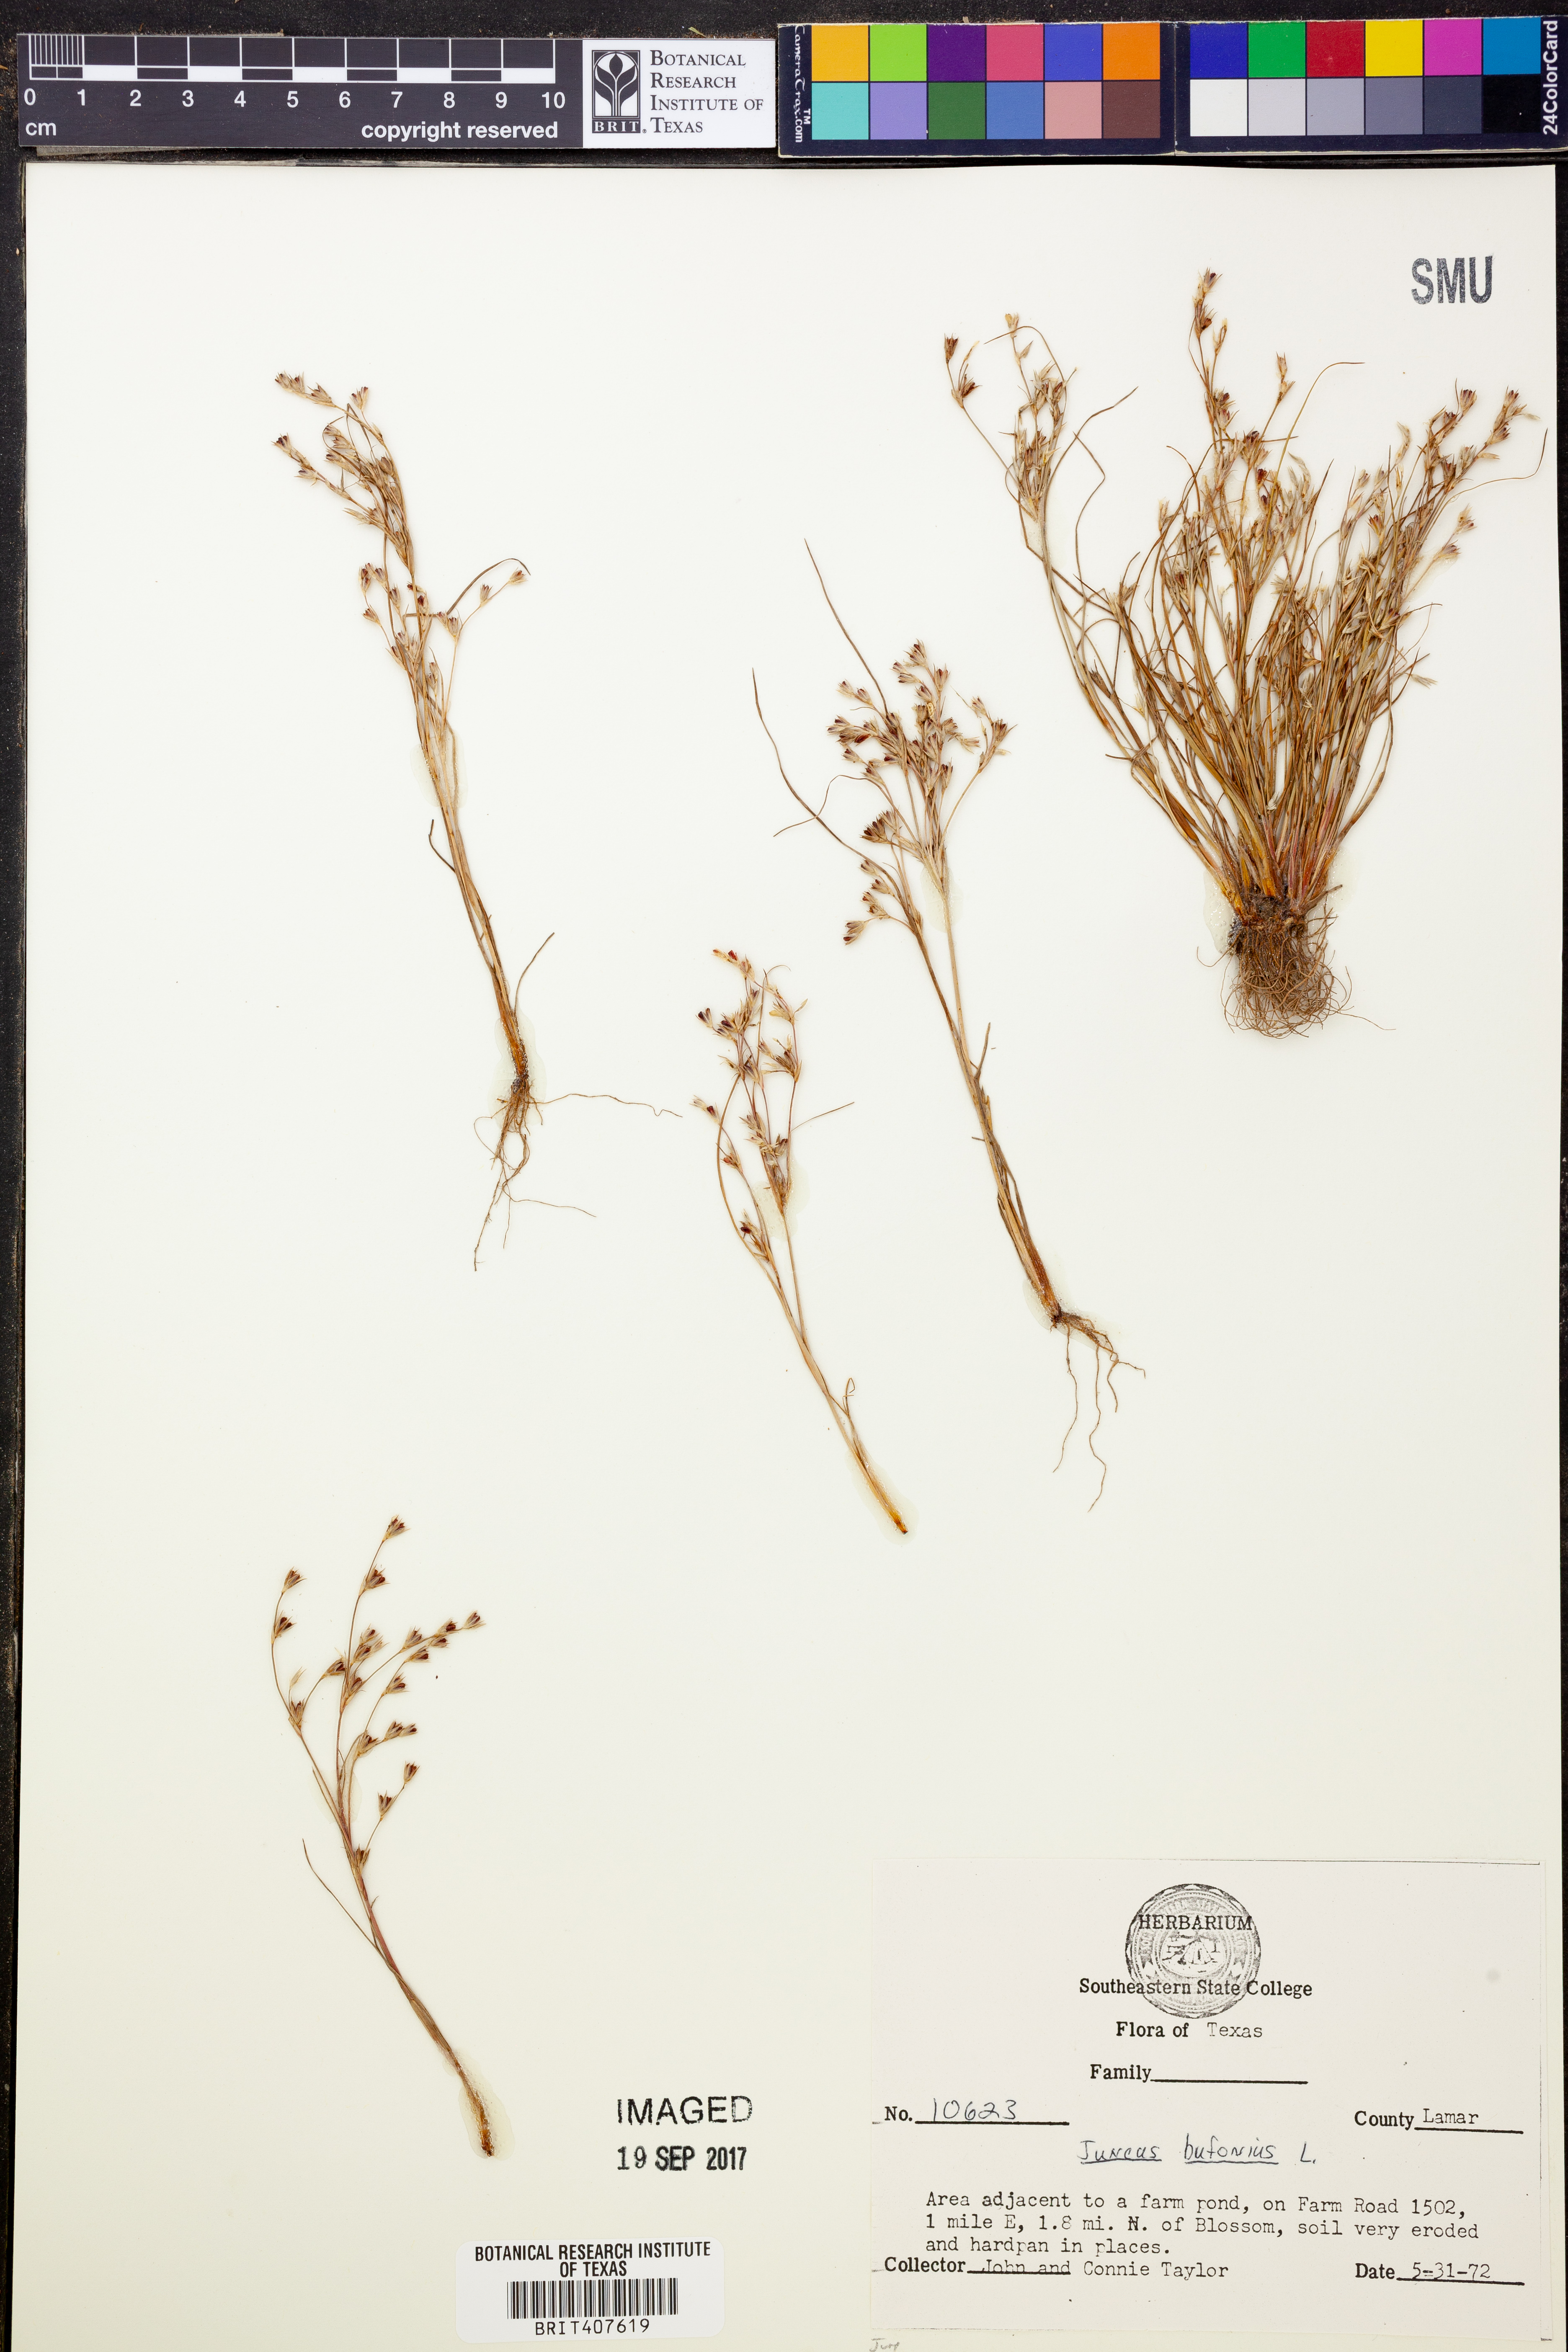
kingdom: Plantae
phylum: Tracheophyta
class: Liliopsida
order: Poales
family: Juncaceae
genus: Juncus
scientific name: Juncus bufonius
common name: Toad rush
